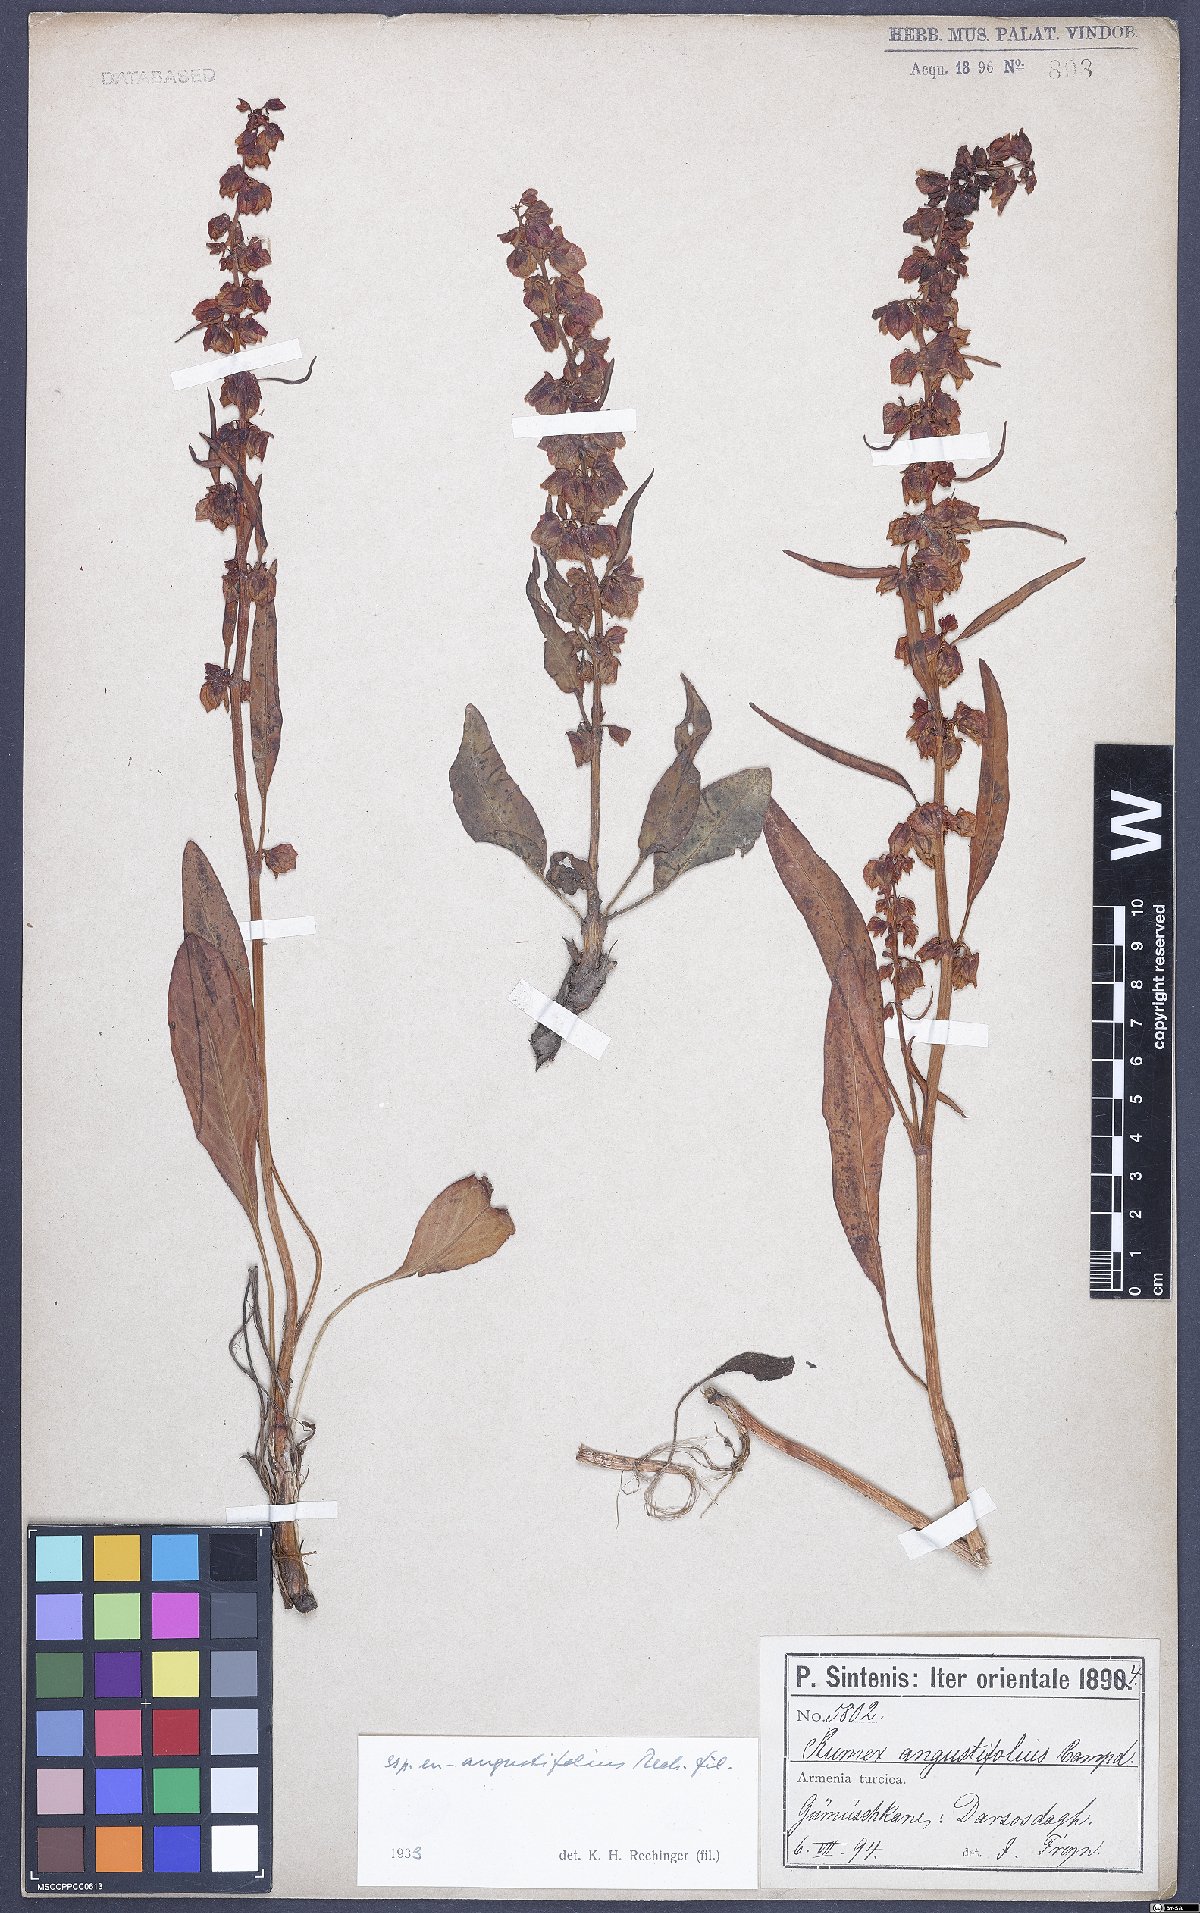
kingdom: Plantae
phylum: Tracheophyta
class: Magnoliopsida
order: Caryophyllales
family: Polygonaceae
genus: Rumex
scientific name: Rumex angustifolius
